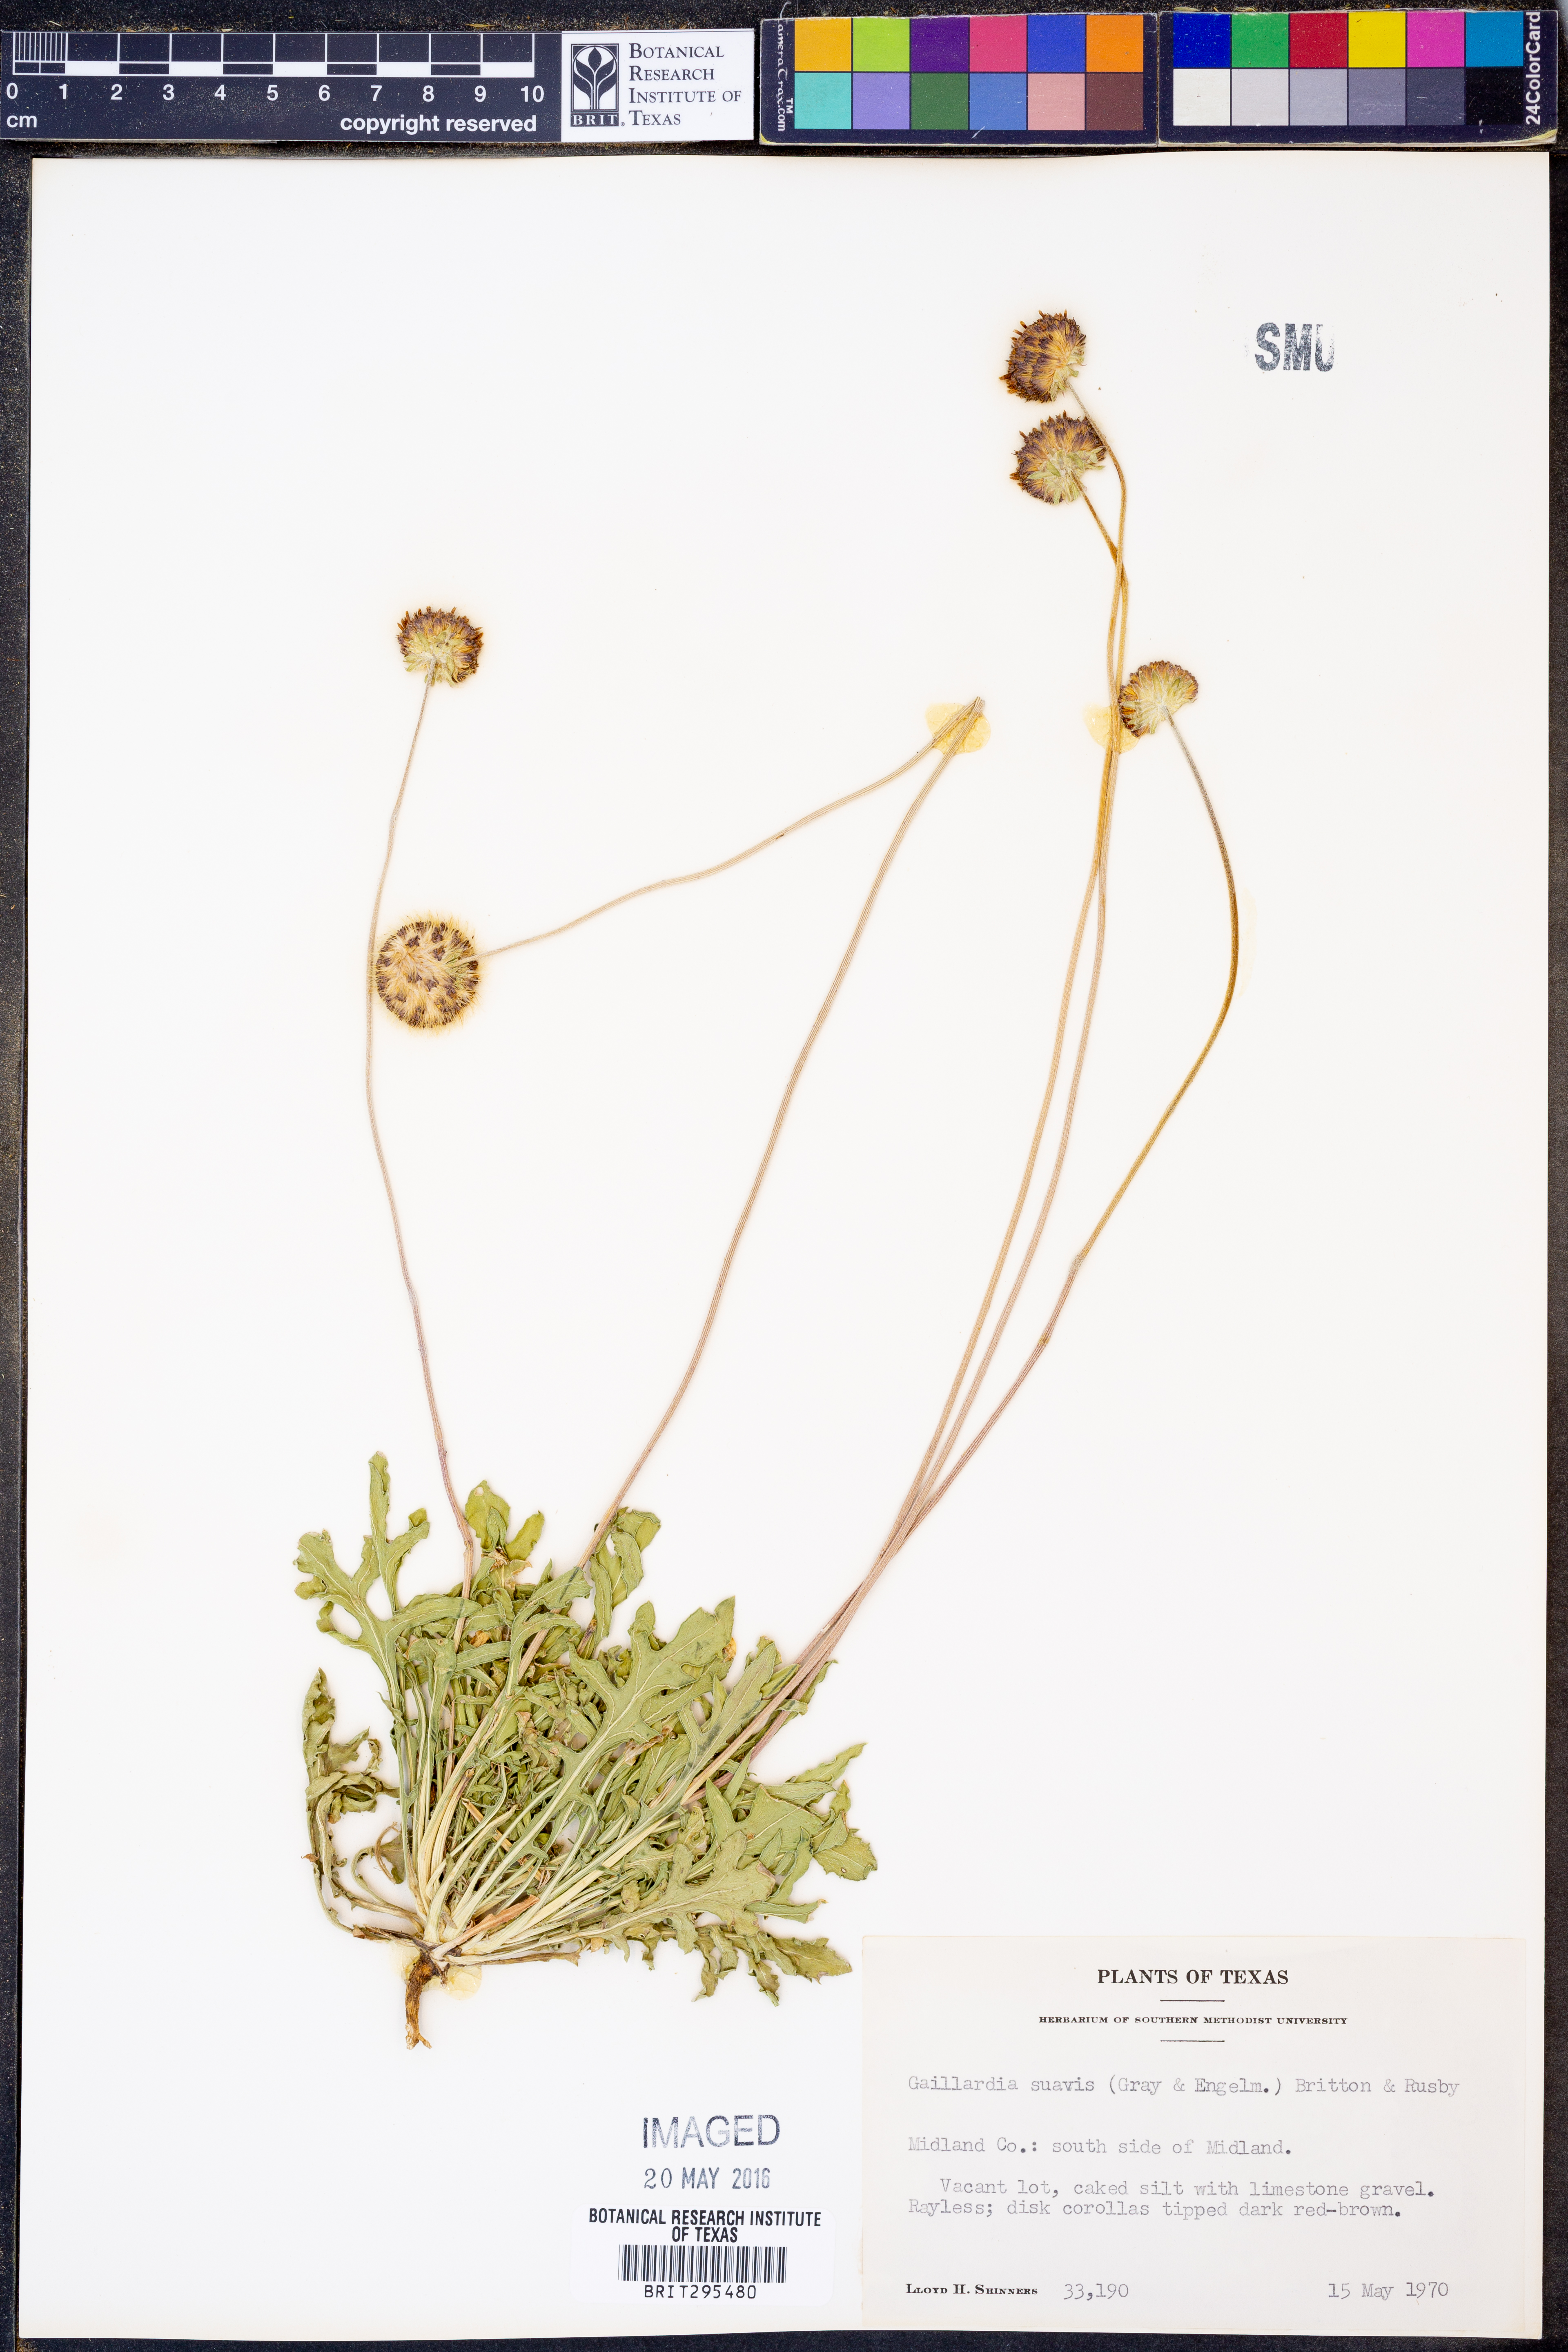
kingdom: Plantae
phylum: Tracheophyta
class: Magnoliopsida
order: Asterales
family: Asteraceae
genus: Gaillardia
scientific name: Gaillardia suavis
